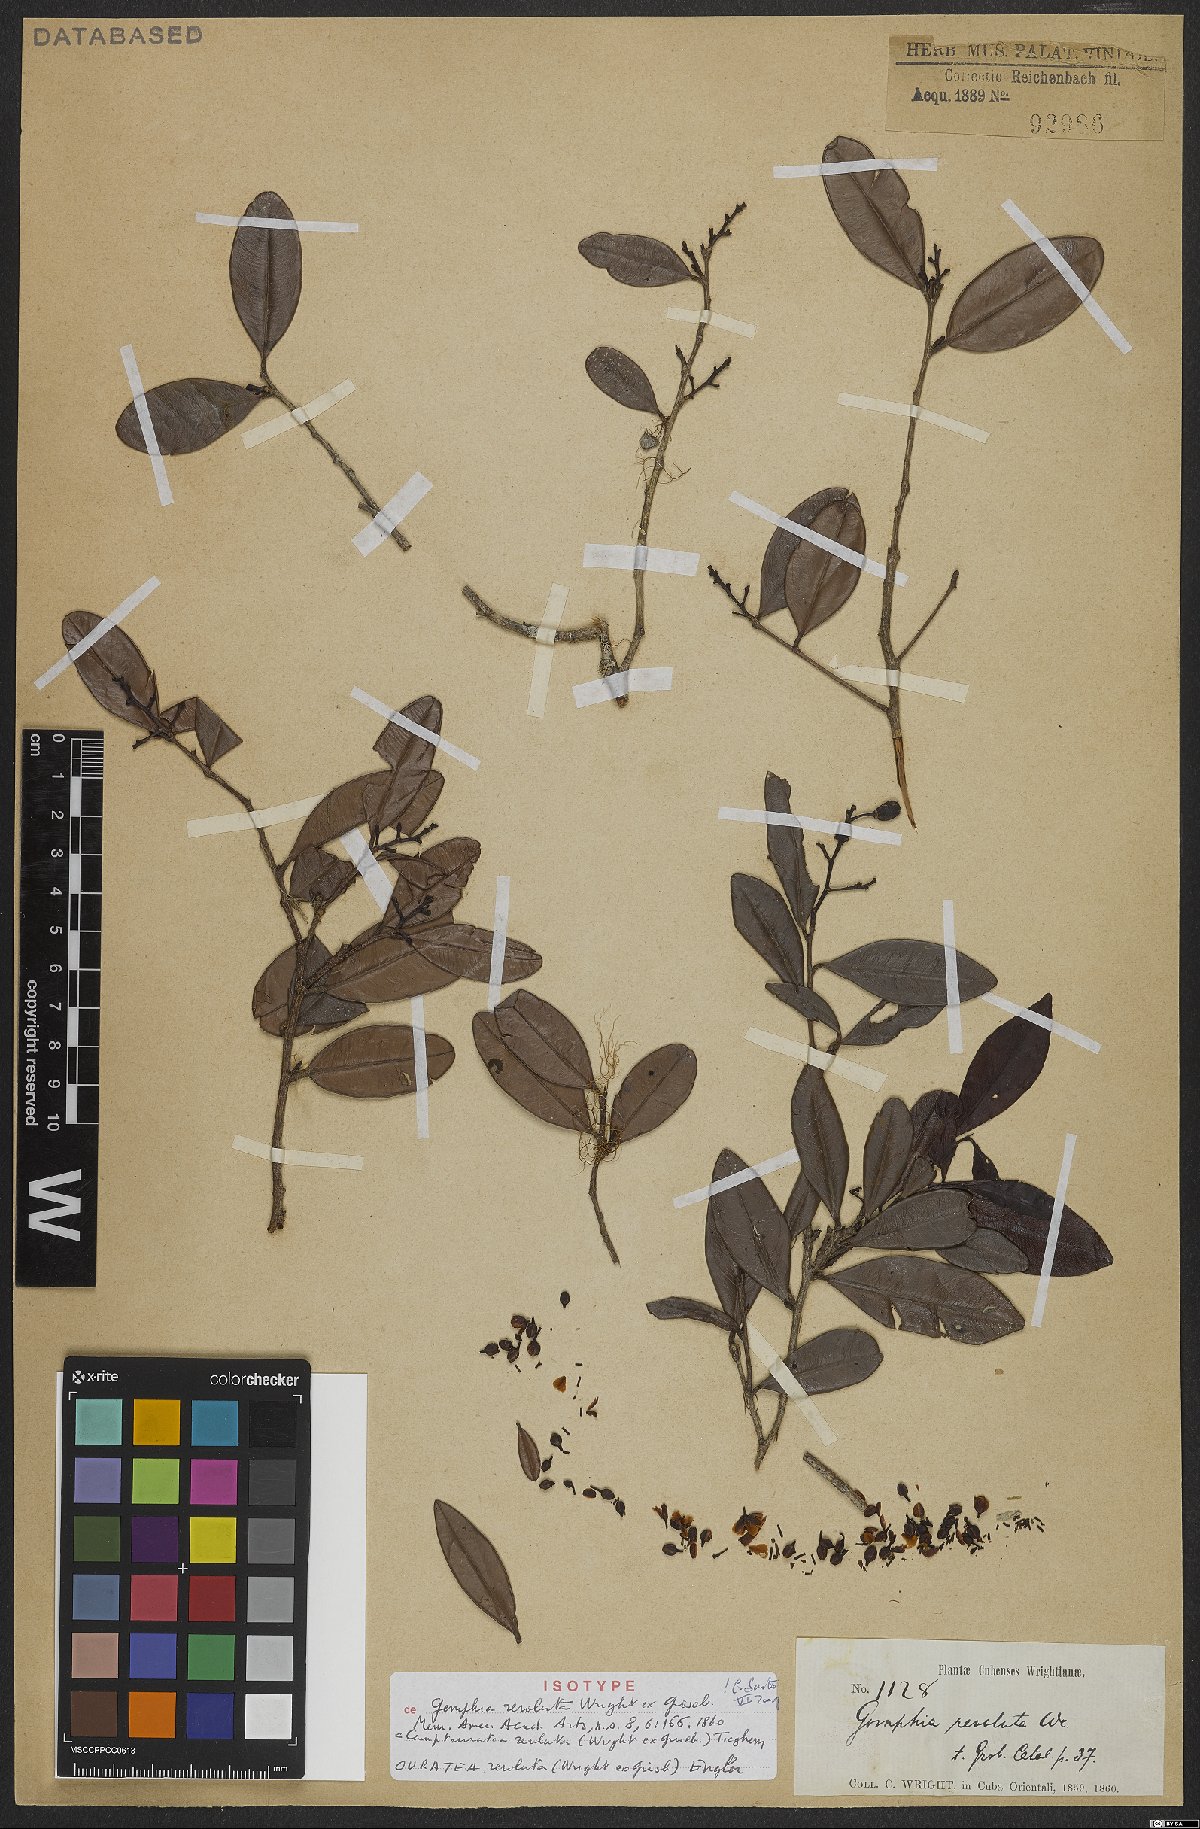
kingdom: Plantae
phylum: Tracheophyta
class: Magnoliopsida
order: Malpighiales
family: Ochnaceae
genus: Ouratea
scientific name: Ouratea revoluta
